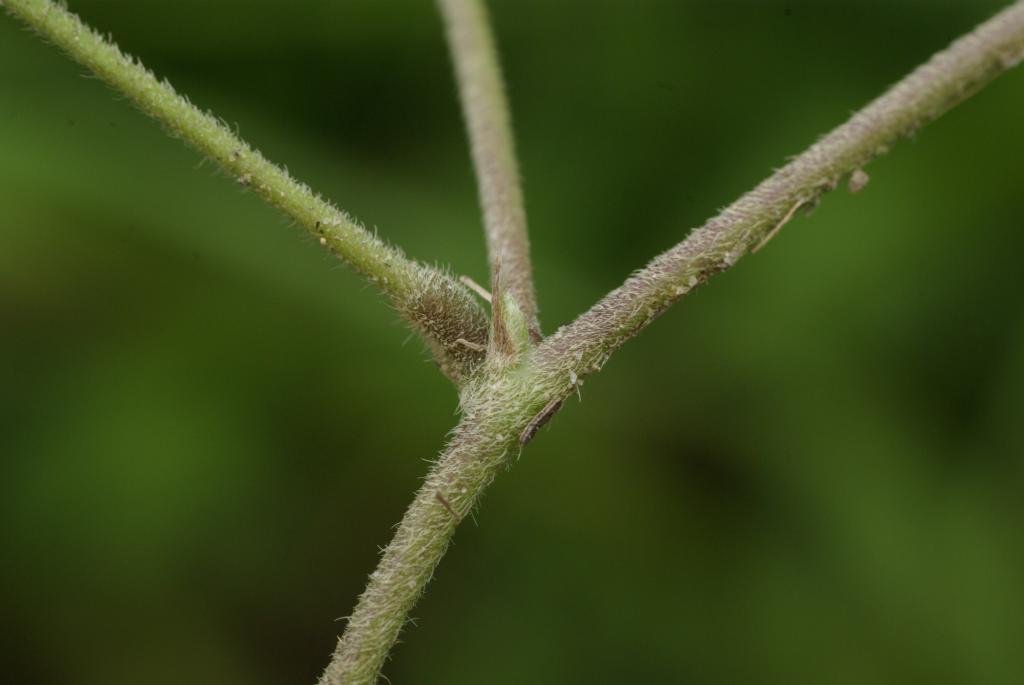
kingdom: Plantae
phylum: Tracheophyta
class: Magnoliopsida
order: Fabales
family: Fabaceae
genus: Galactia
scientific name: Galactia tashiroi
